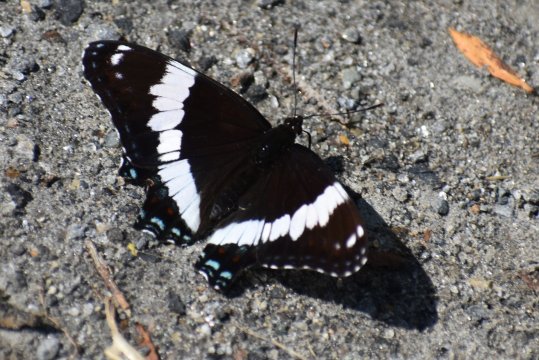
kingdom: Animalia
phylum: Arthropoda
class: Insecta
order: Lepidoptera
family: Nymphalidae
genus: Limenitis
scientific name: Limenitis arthemis
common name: Red-spotted Admiral
